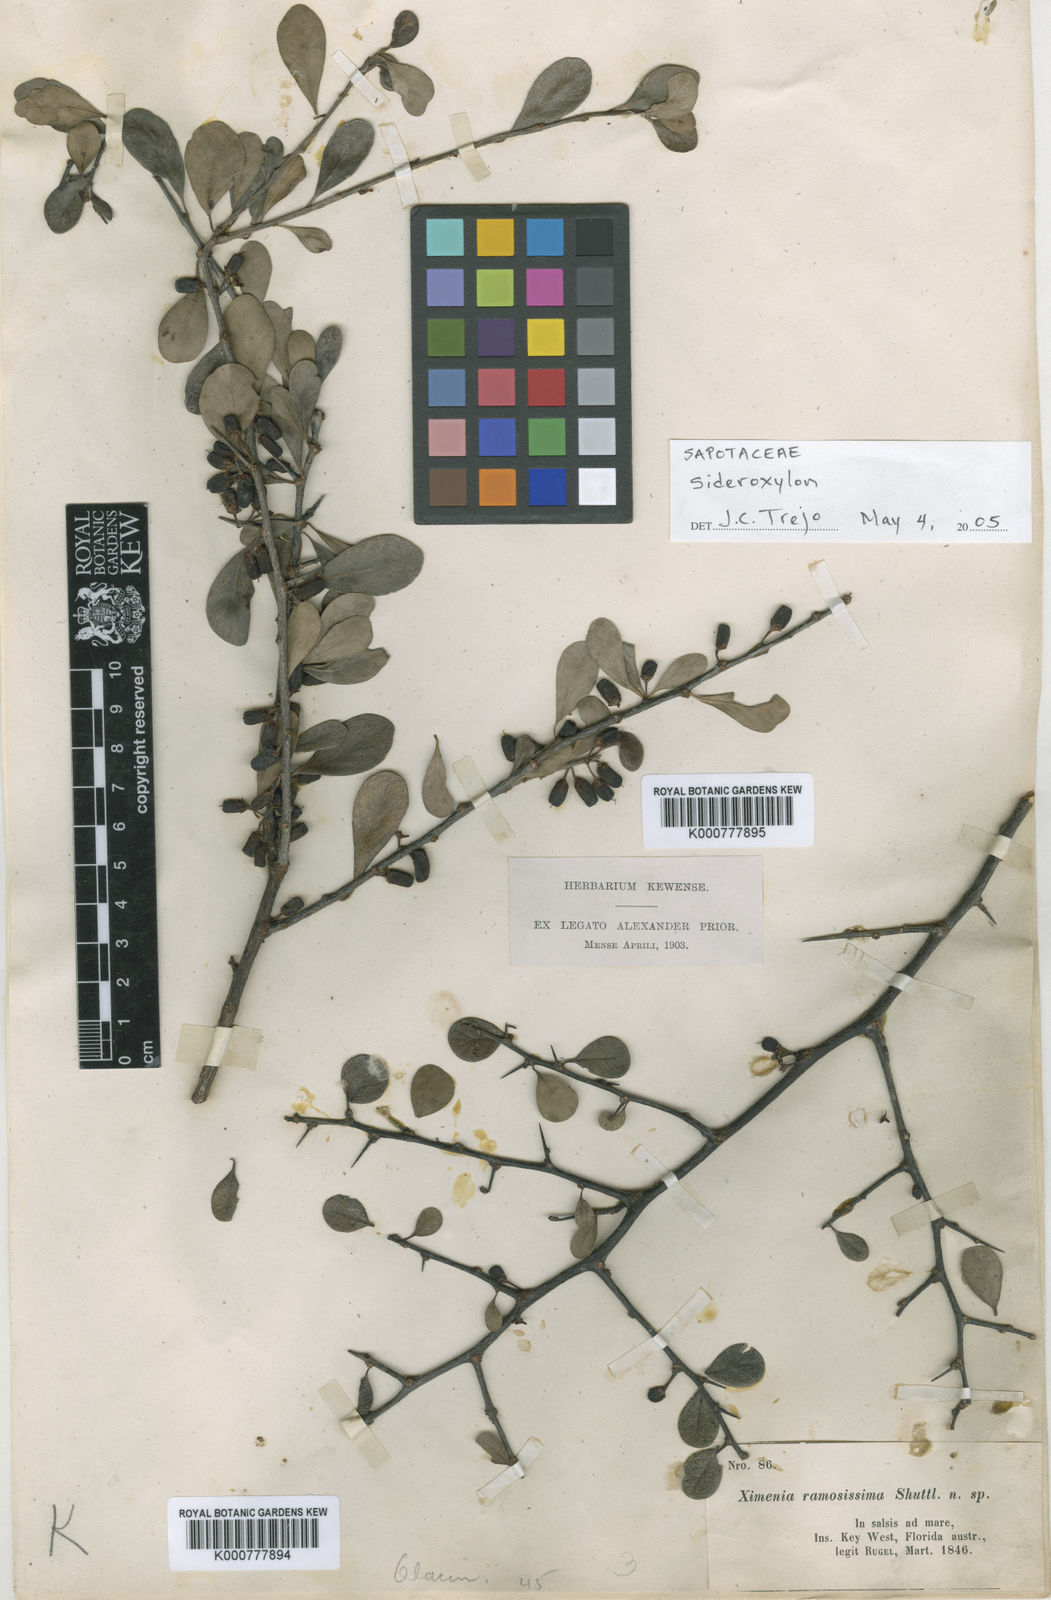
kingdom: Plantae
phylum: Tracheophyta
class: Magnoliopsida
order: Ericales
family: Sapotaceae
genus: Sideroxylon
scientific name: Sideroxylon
